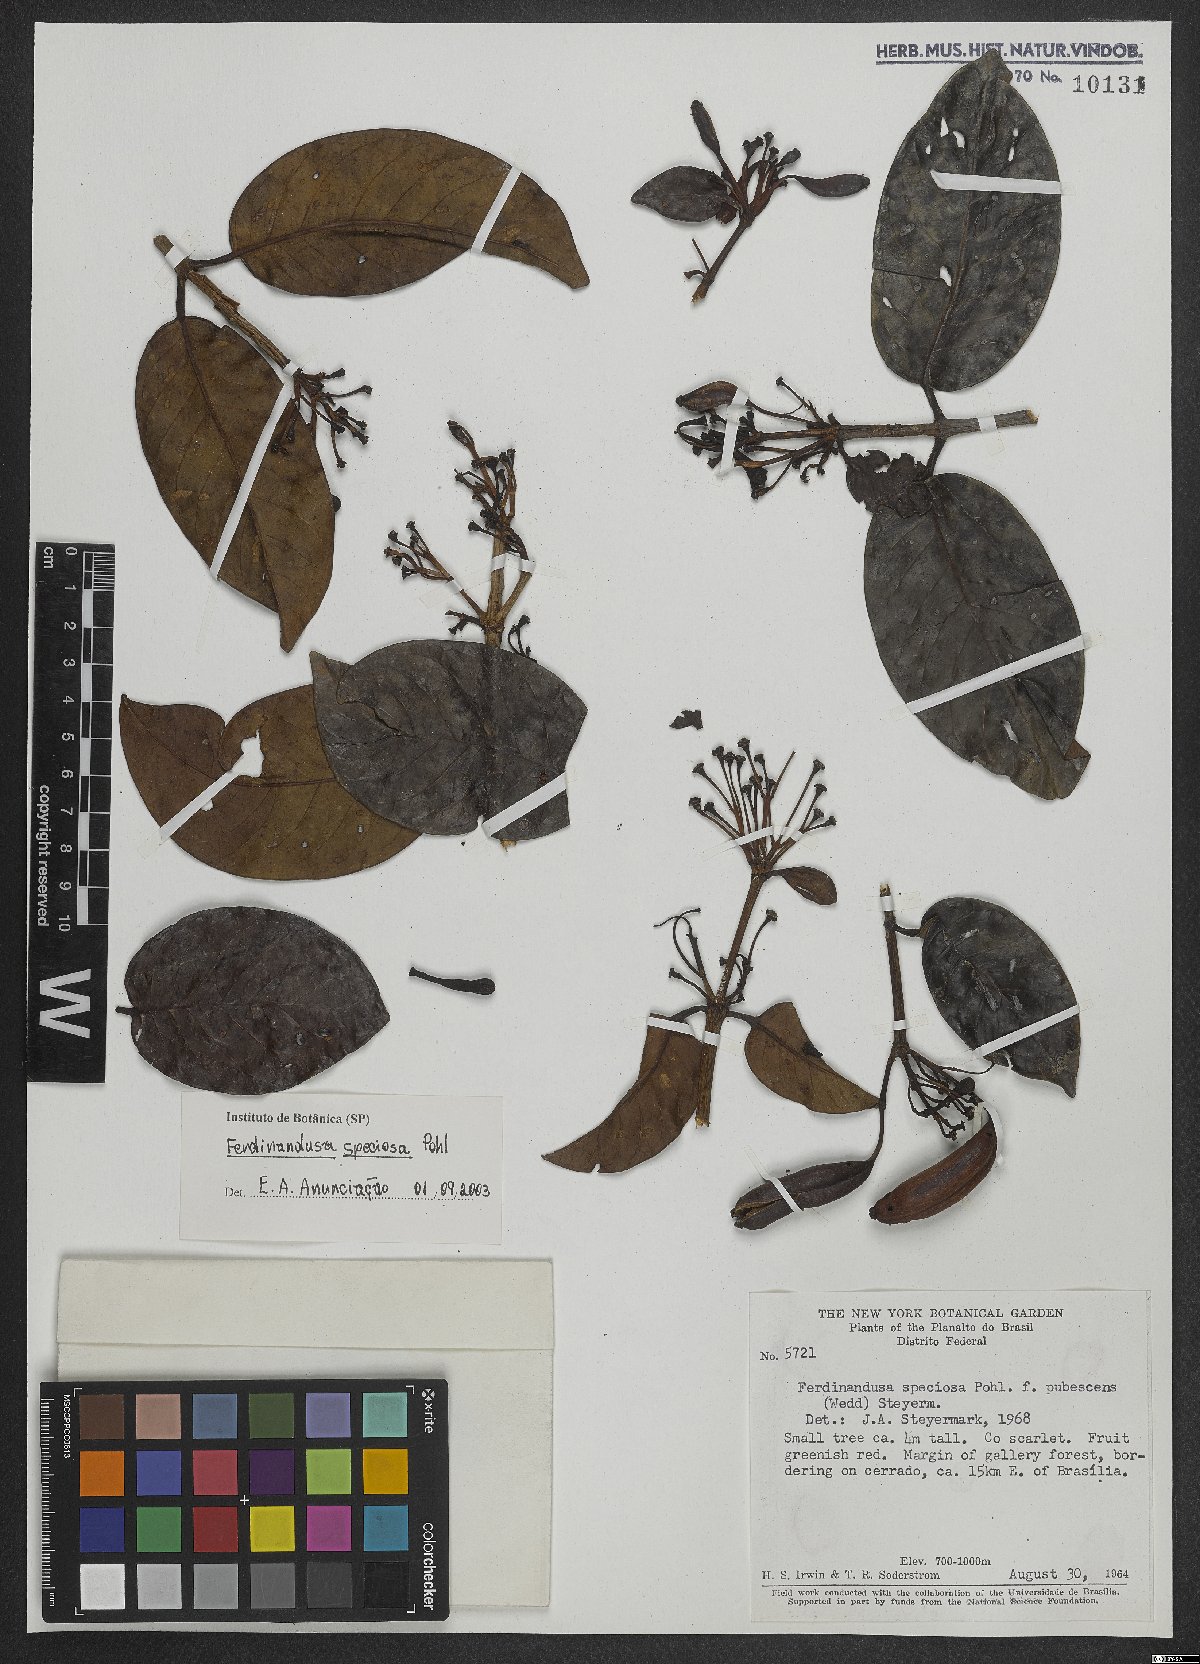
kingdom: Plantae
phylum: Tracheophyta
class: Magnoliopsida
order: Gentianales
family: Rubiaceae
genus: Ferdinandusa
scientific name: Ferdinandusa speciosa
